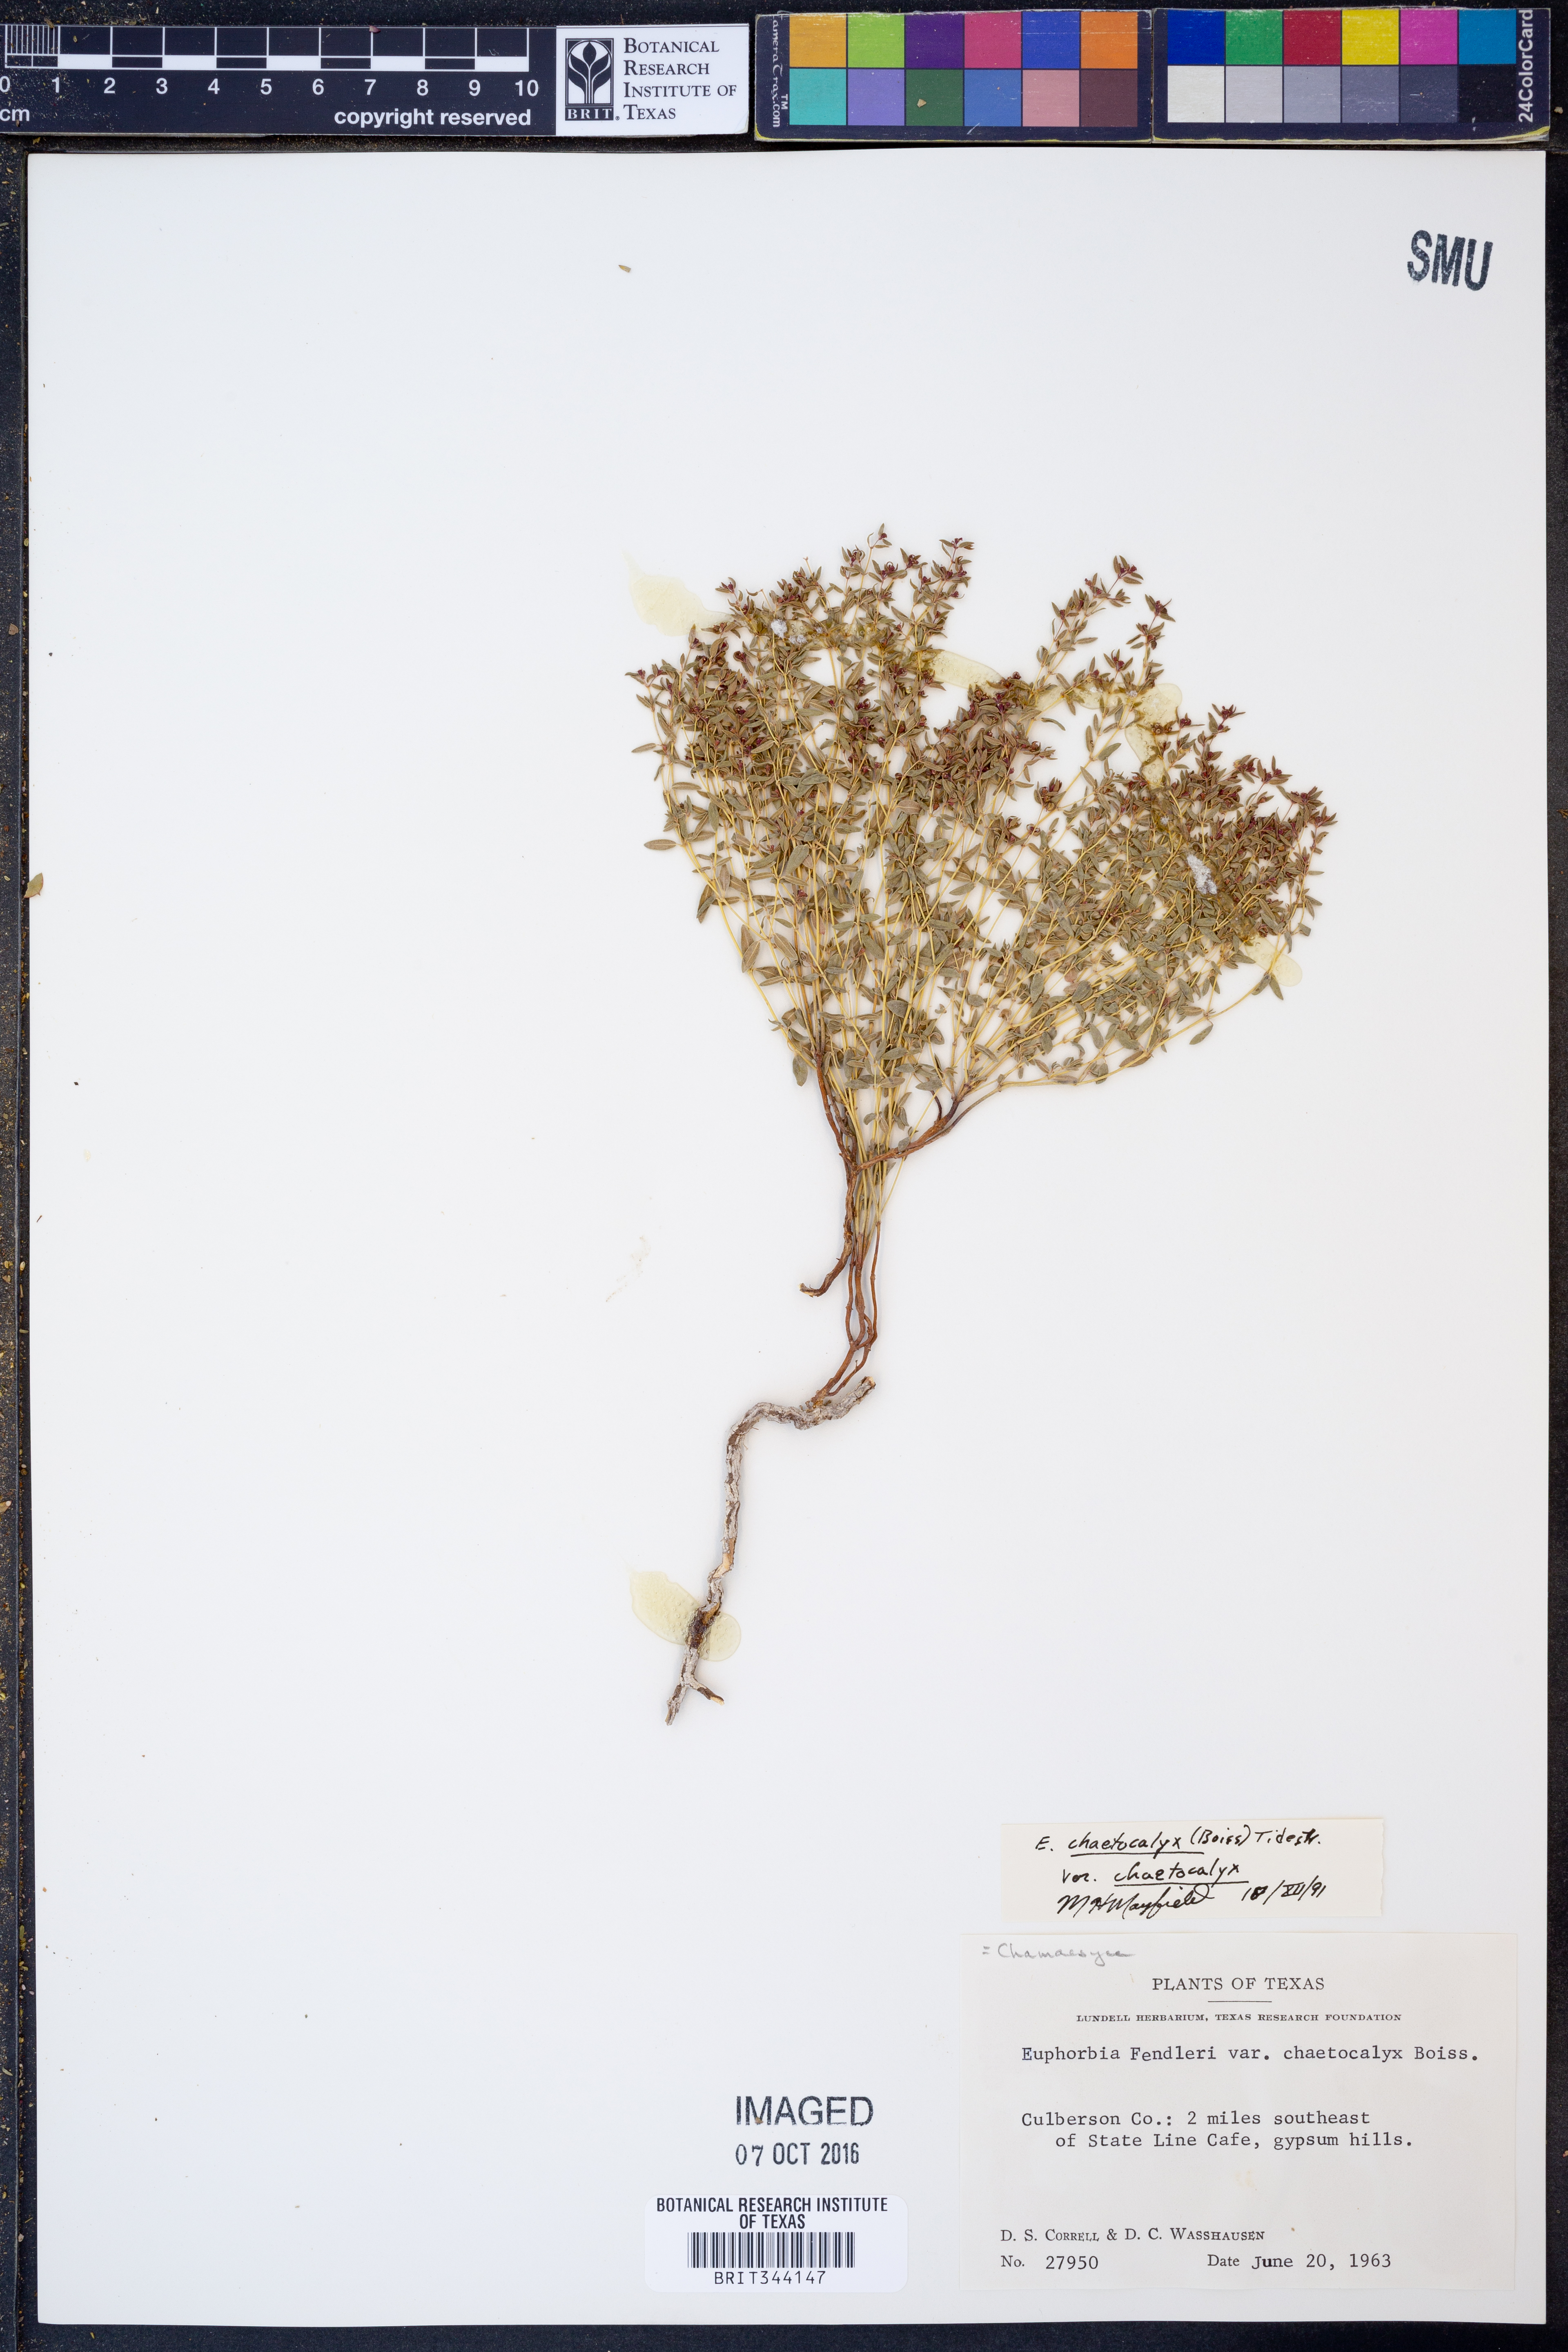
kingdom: Plantae
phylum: Tracheophyta
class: Magnoliopsida
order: Malpighiales
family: Euphorbiaceae
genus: Euphorbia
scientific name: Euphorbia chaetocalyx
